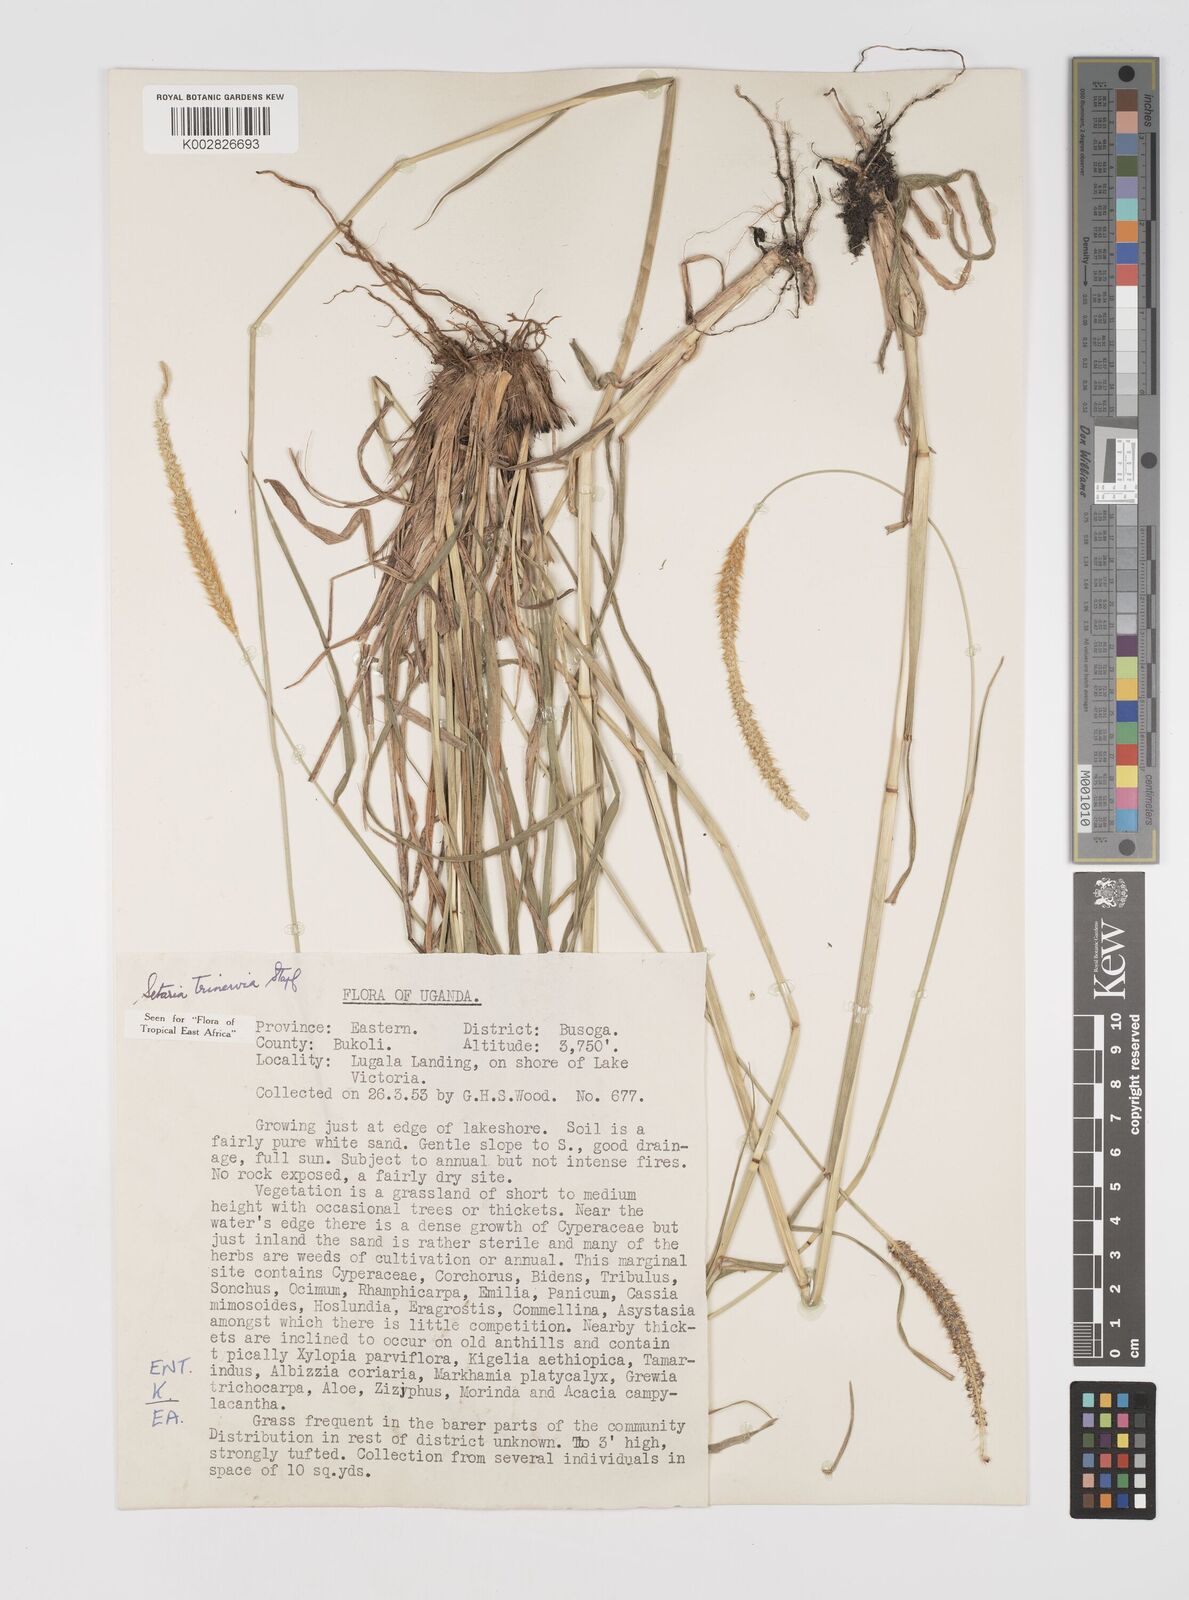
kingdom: Plantae
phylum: Tracheophyta
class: Liliopsida
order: Poales
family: Poaceae
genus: Setaria
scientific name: Setaria sphacelata
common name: African bristlegrass
